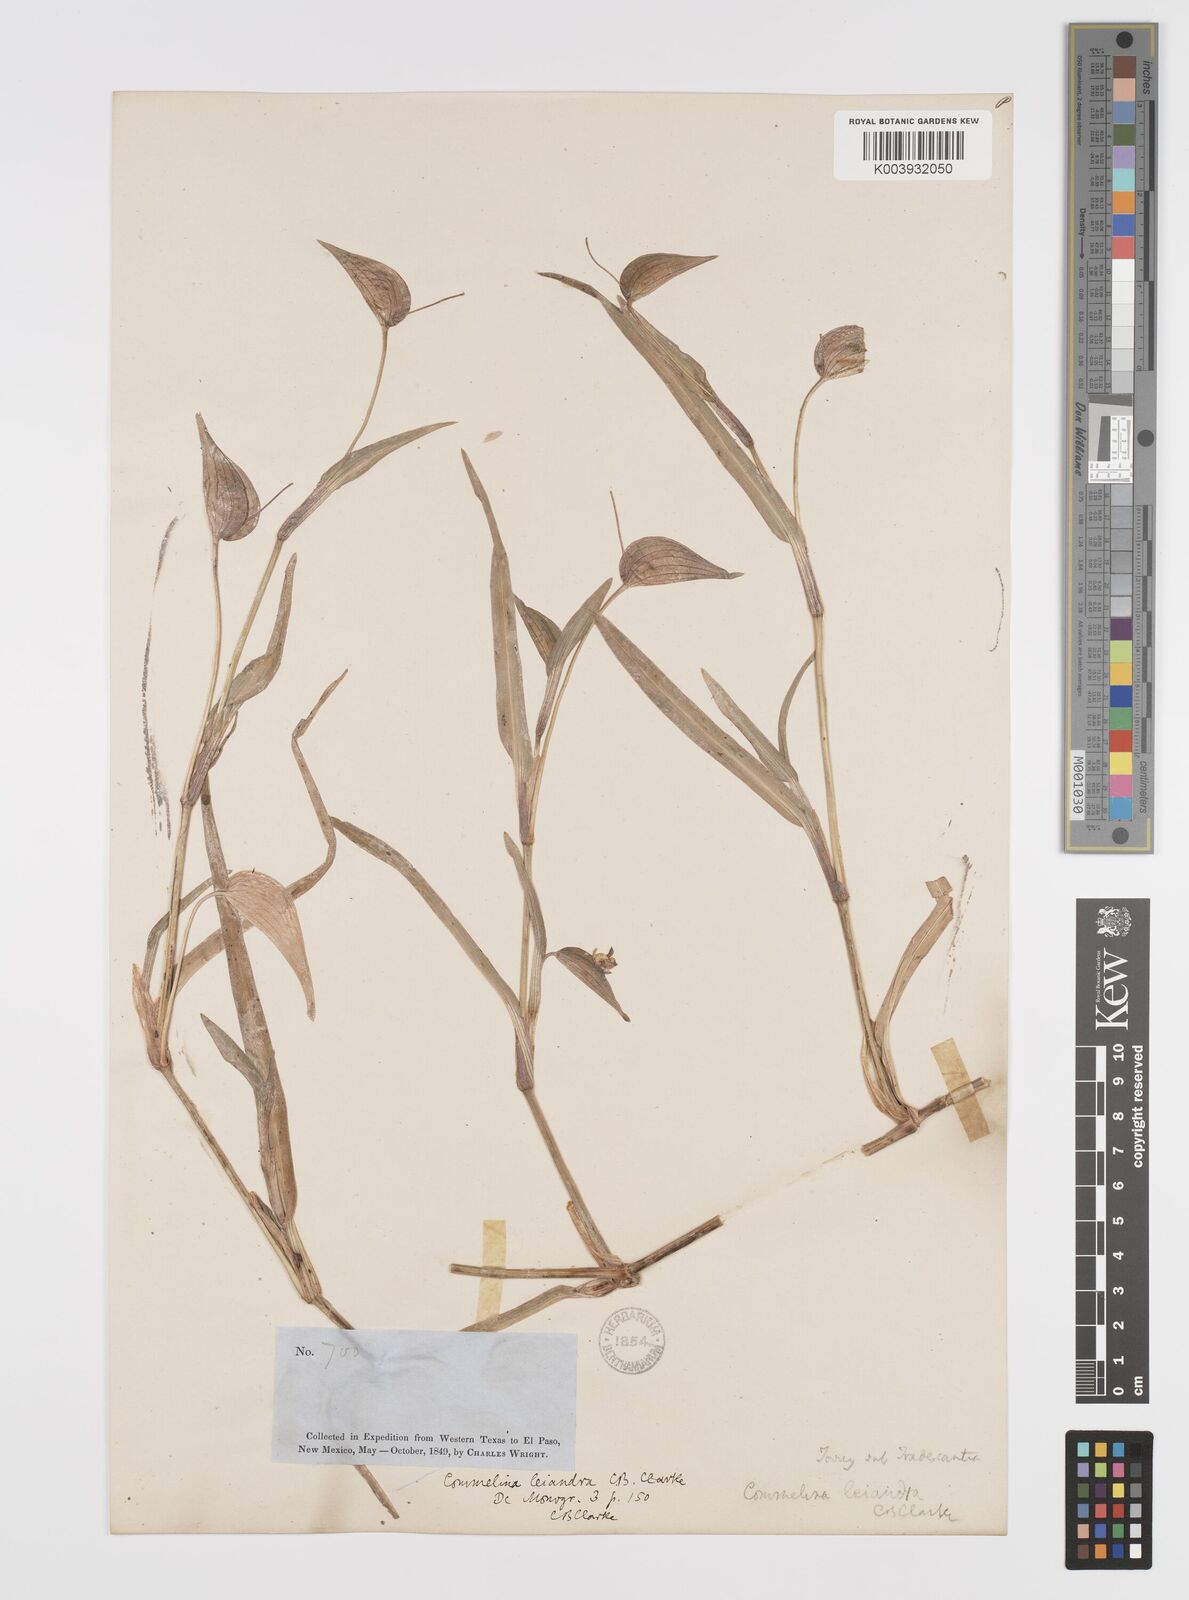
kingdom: Plantae
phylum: Tracheophyta
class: Liliopsida
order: Commelinales
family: Commelinaceae
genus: Commelina
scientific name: Commelina dianthifolia
